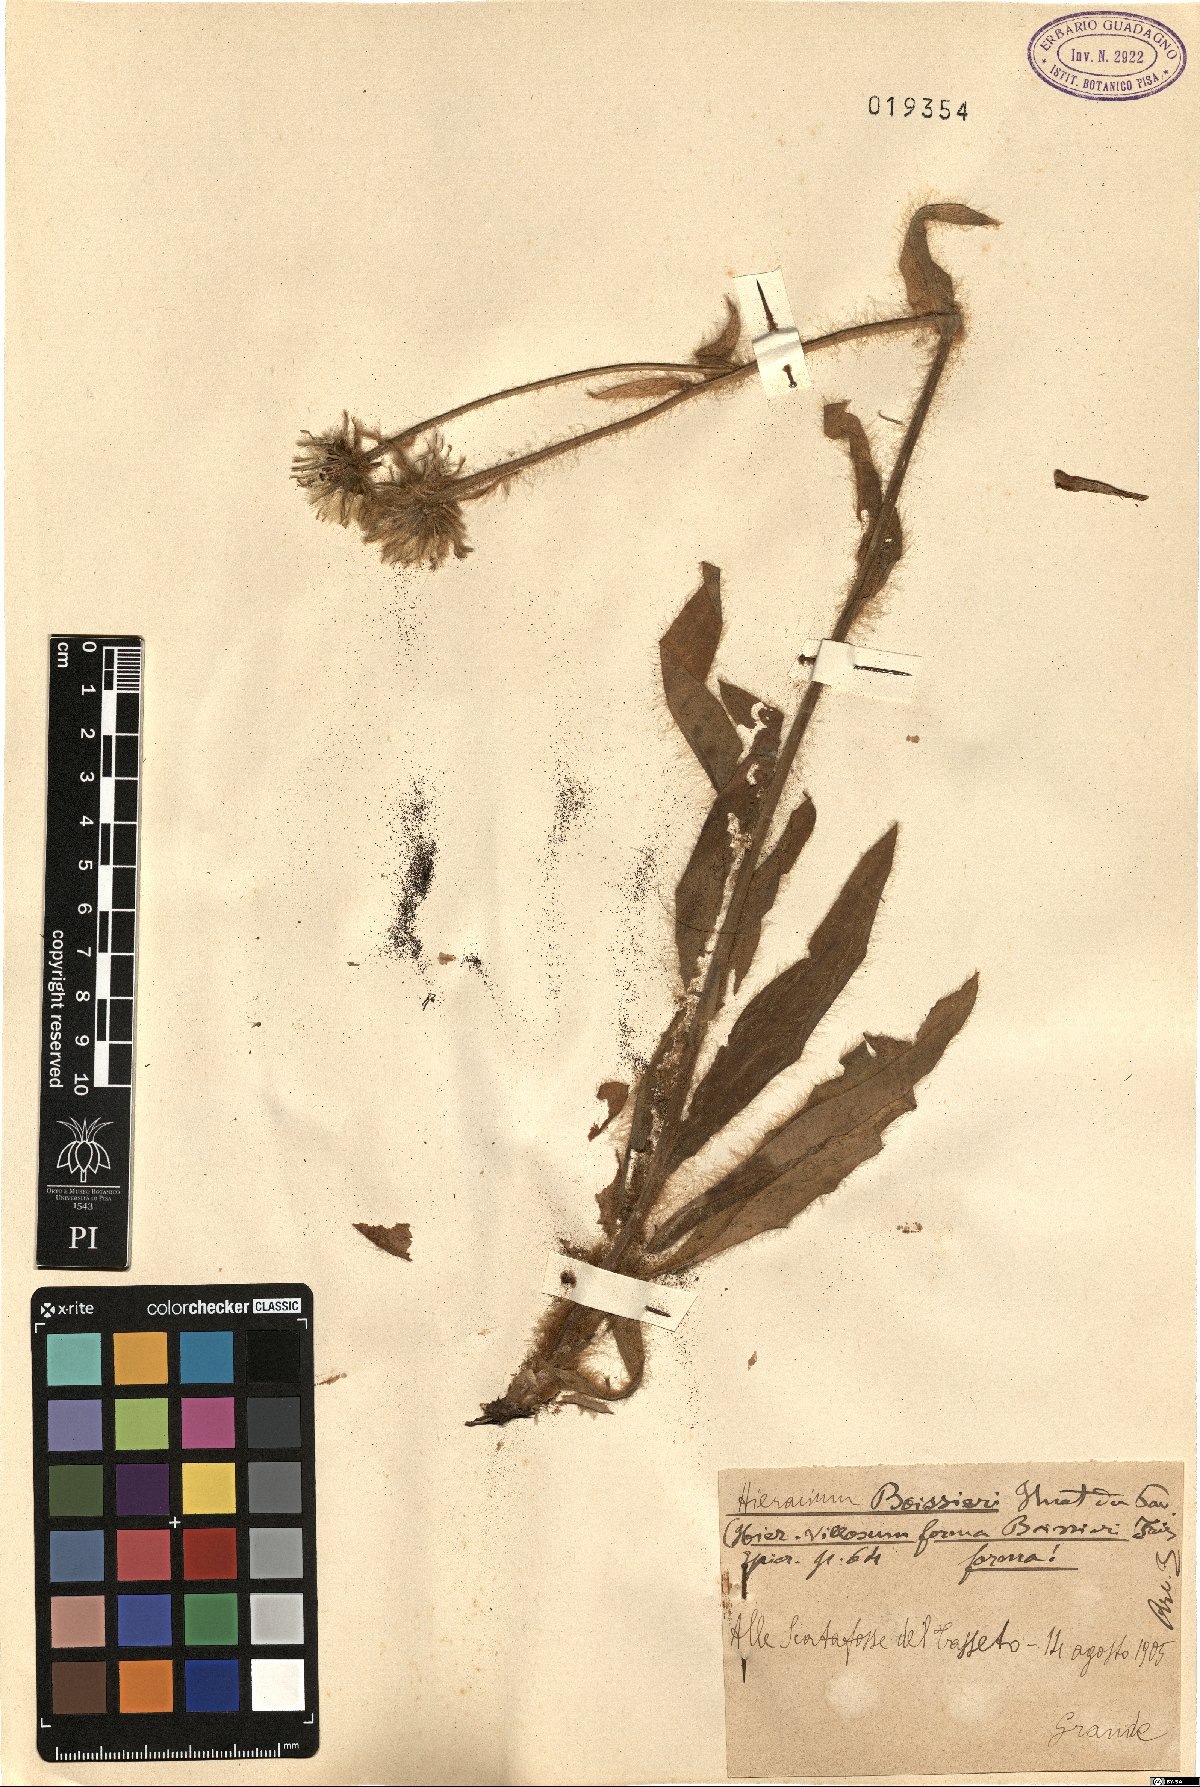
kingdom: Plantae
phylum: Tracheophyta
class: Magnoliopsida
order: Asterales
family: Asteraceae
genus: Hieracium
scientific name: Hieracium boissieri
